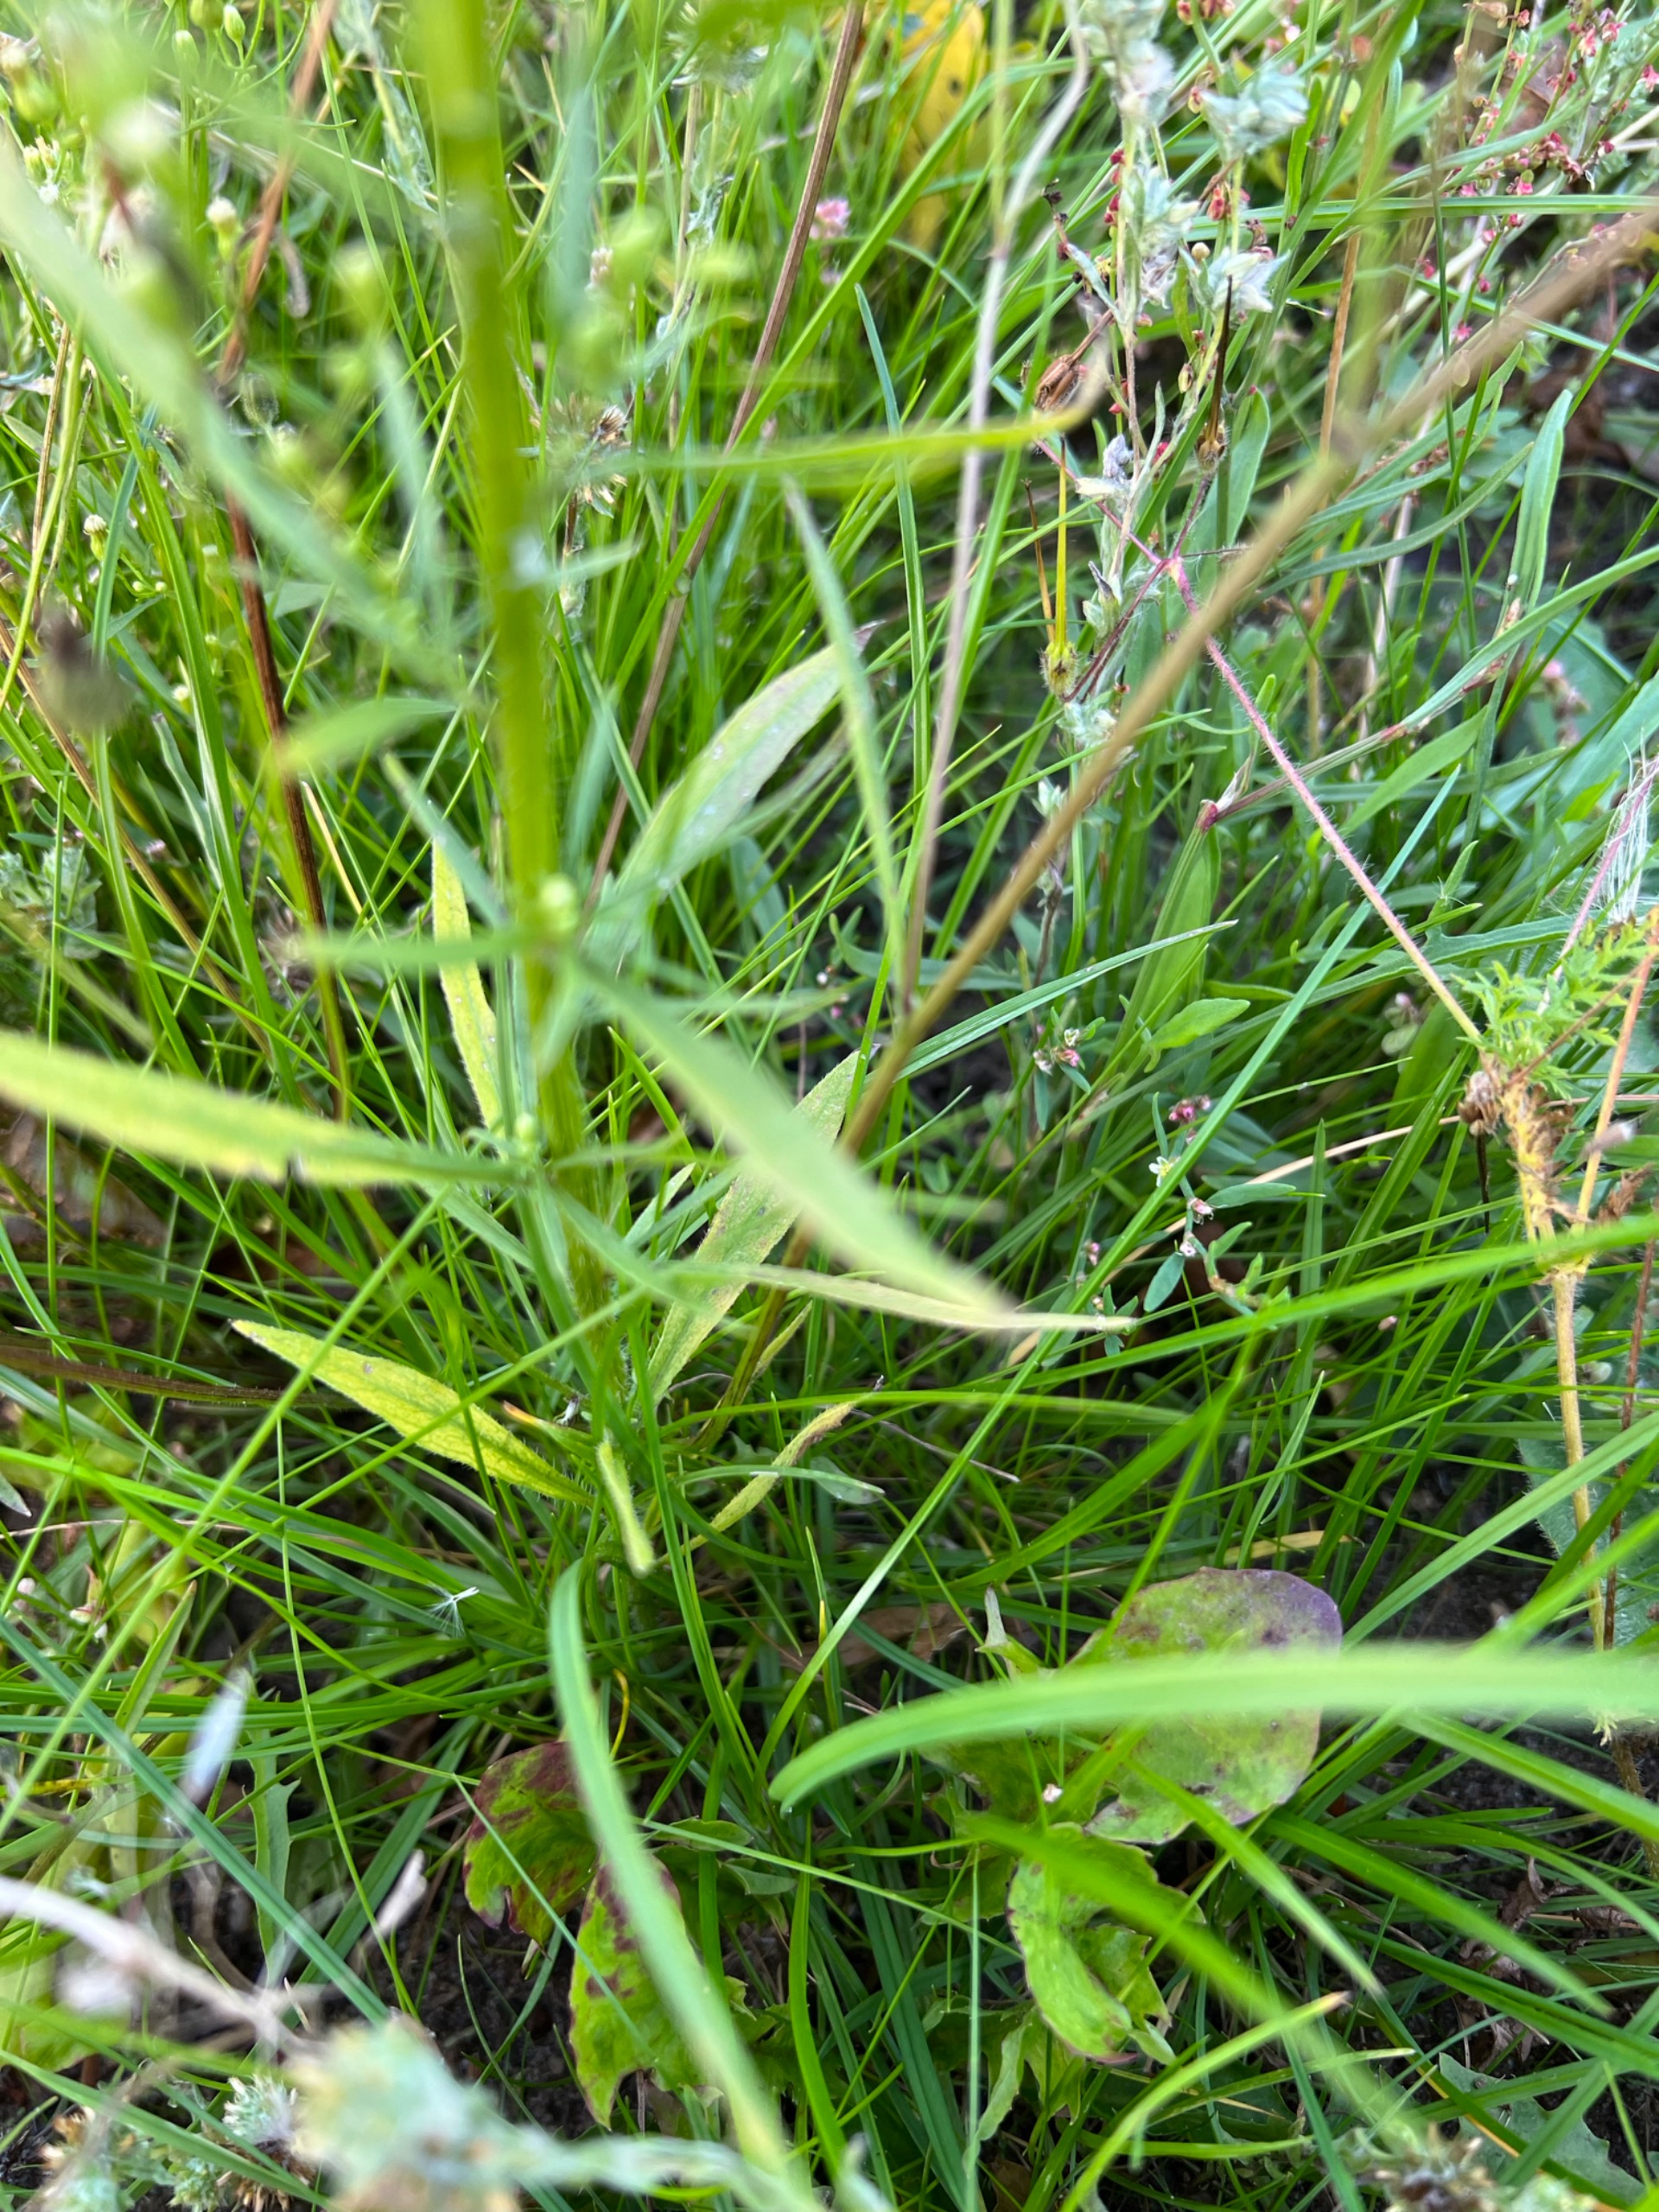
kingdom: Plantae
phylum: Tracheophyta
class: Magnoliopsida
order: Asterales
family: Asteraceae
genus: Erigeron
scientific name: Erigeron canadensis
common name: Kanadisk bakkestjerne
